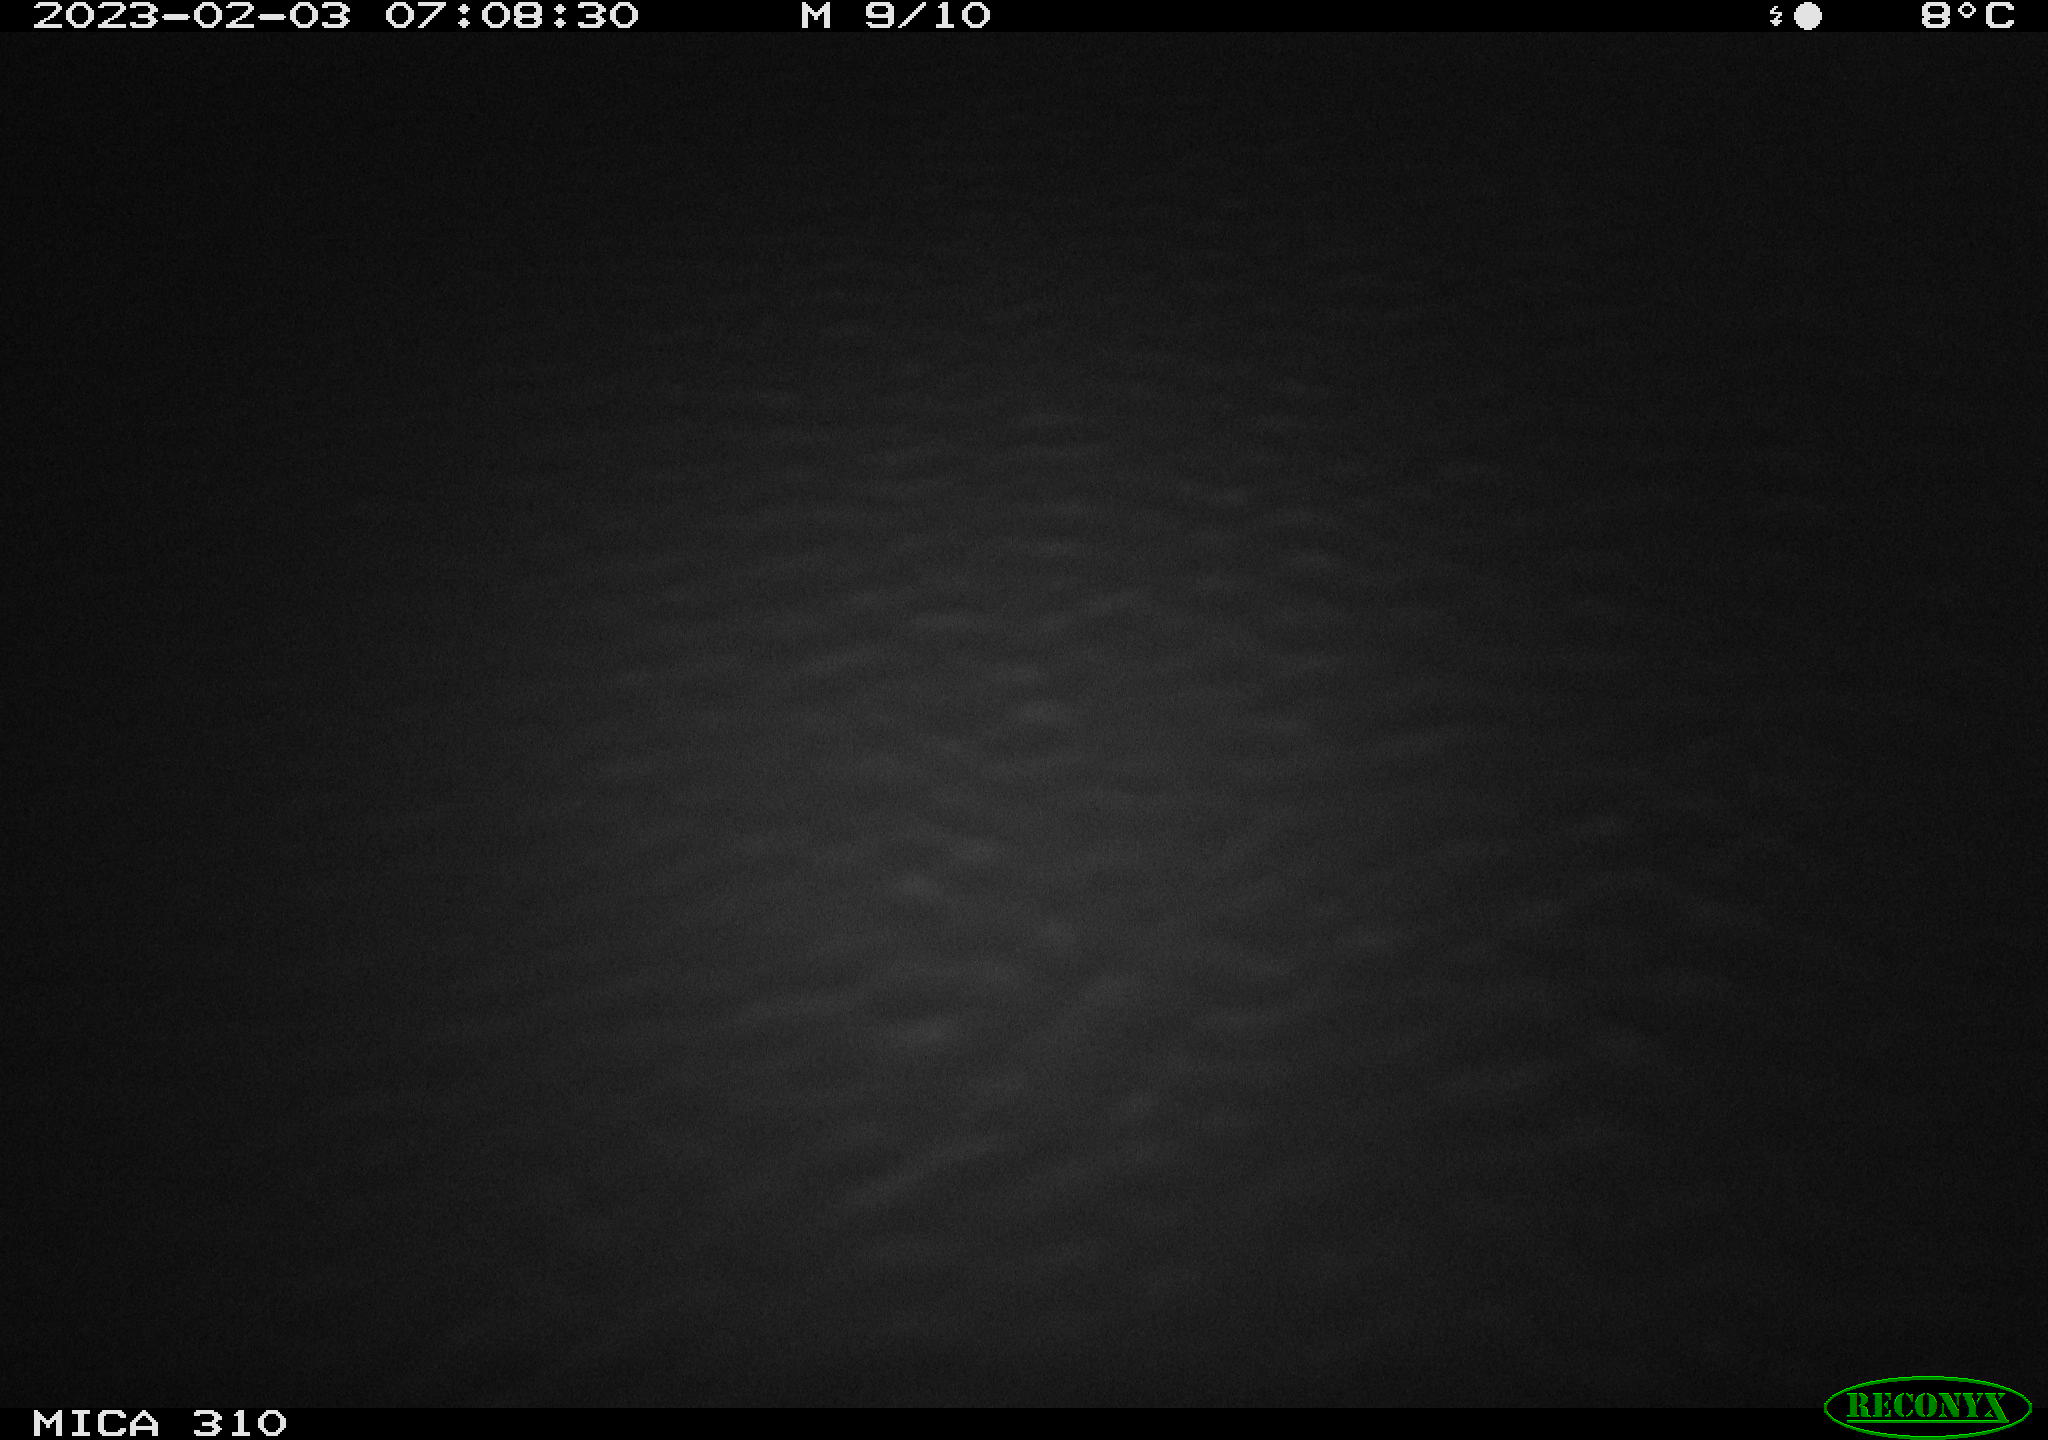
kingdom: Animalia
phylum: Chordata
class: Mammalia
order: Rodentia
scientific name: Rodentia
